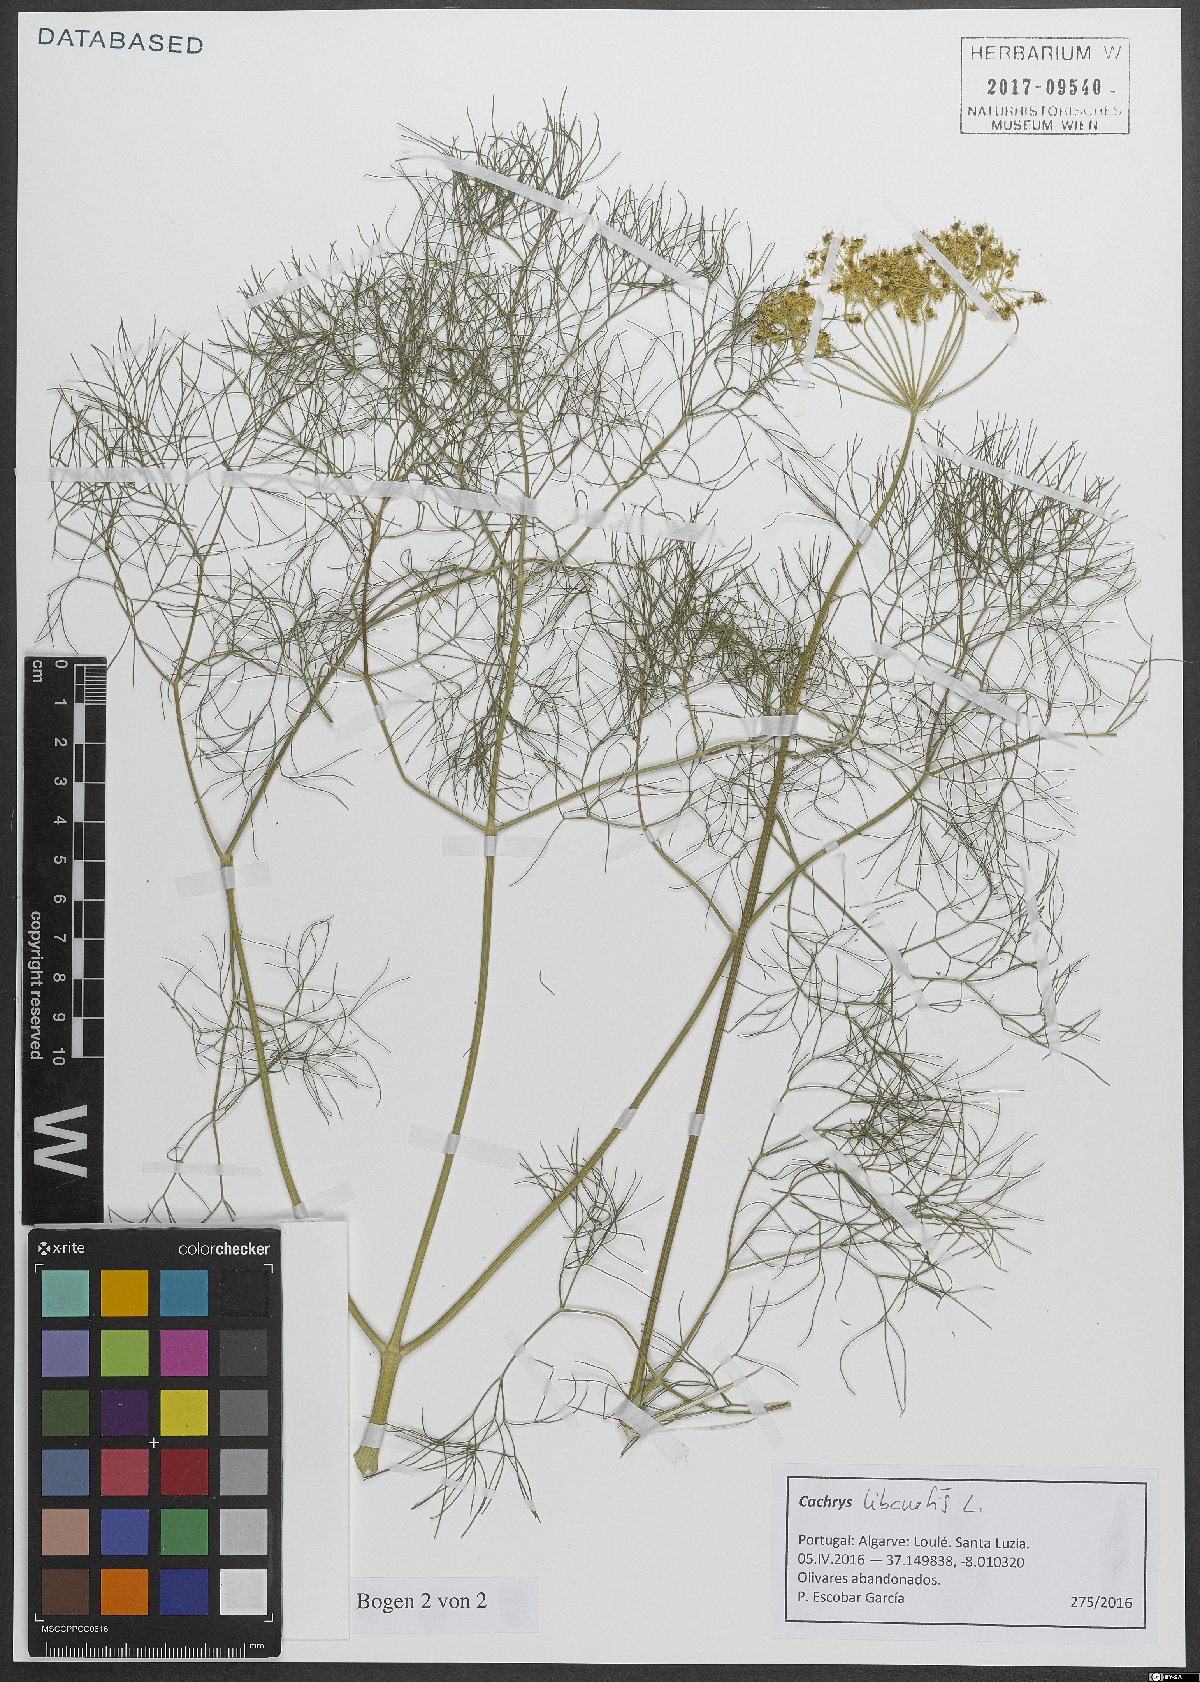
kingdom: Plantae
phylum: Tracheophyta
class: Magnoliopsida
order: Apiales
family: Apiaceae
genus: Cachrys
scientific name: Cachrys libanotis
